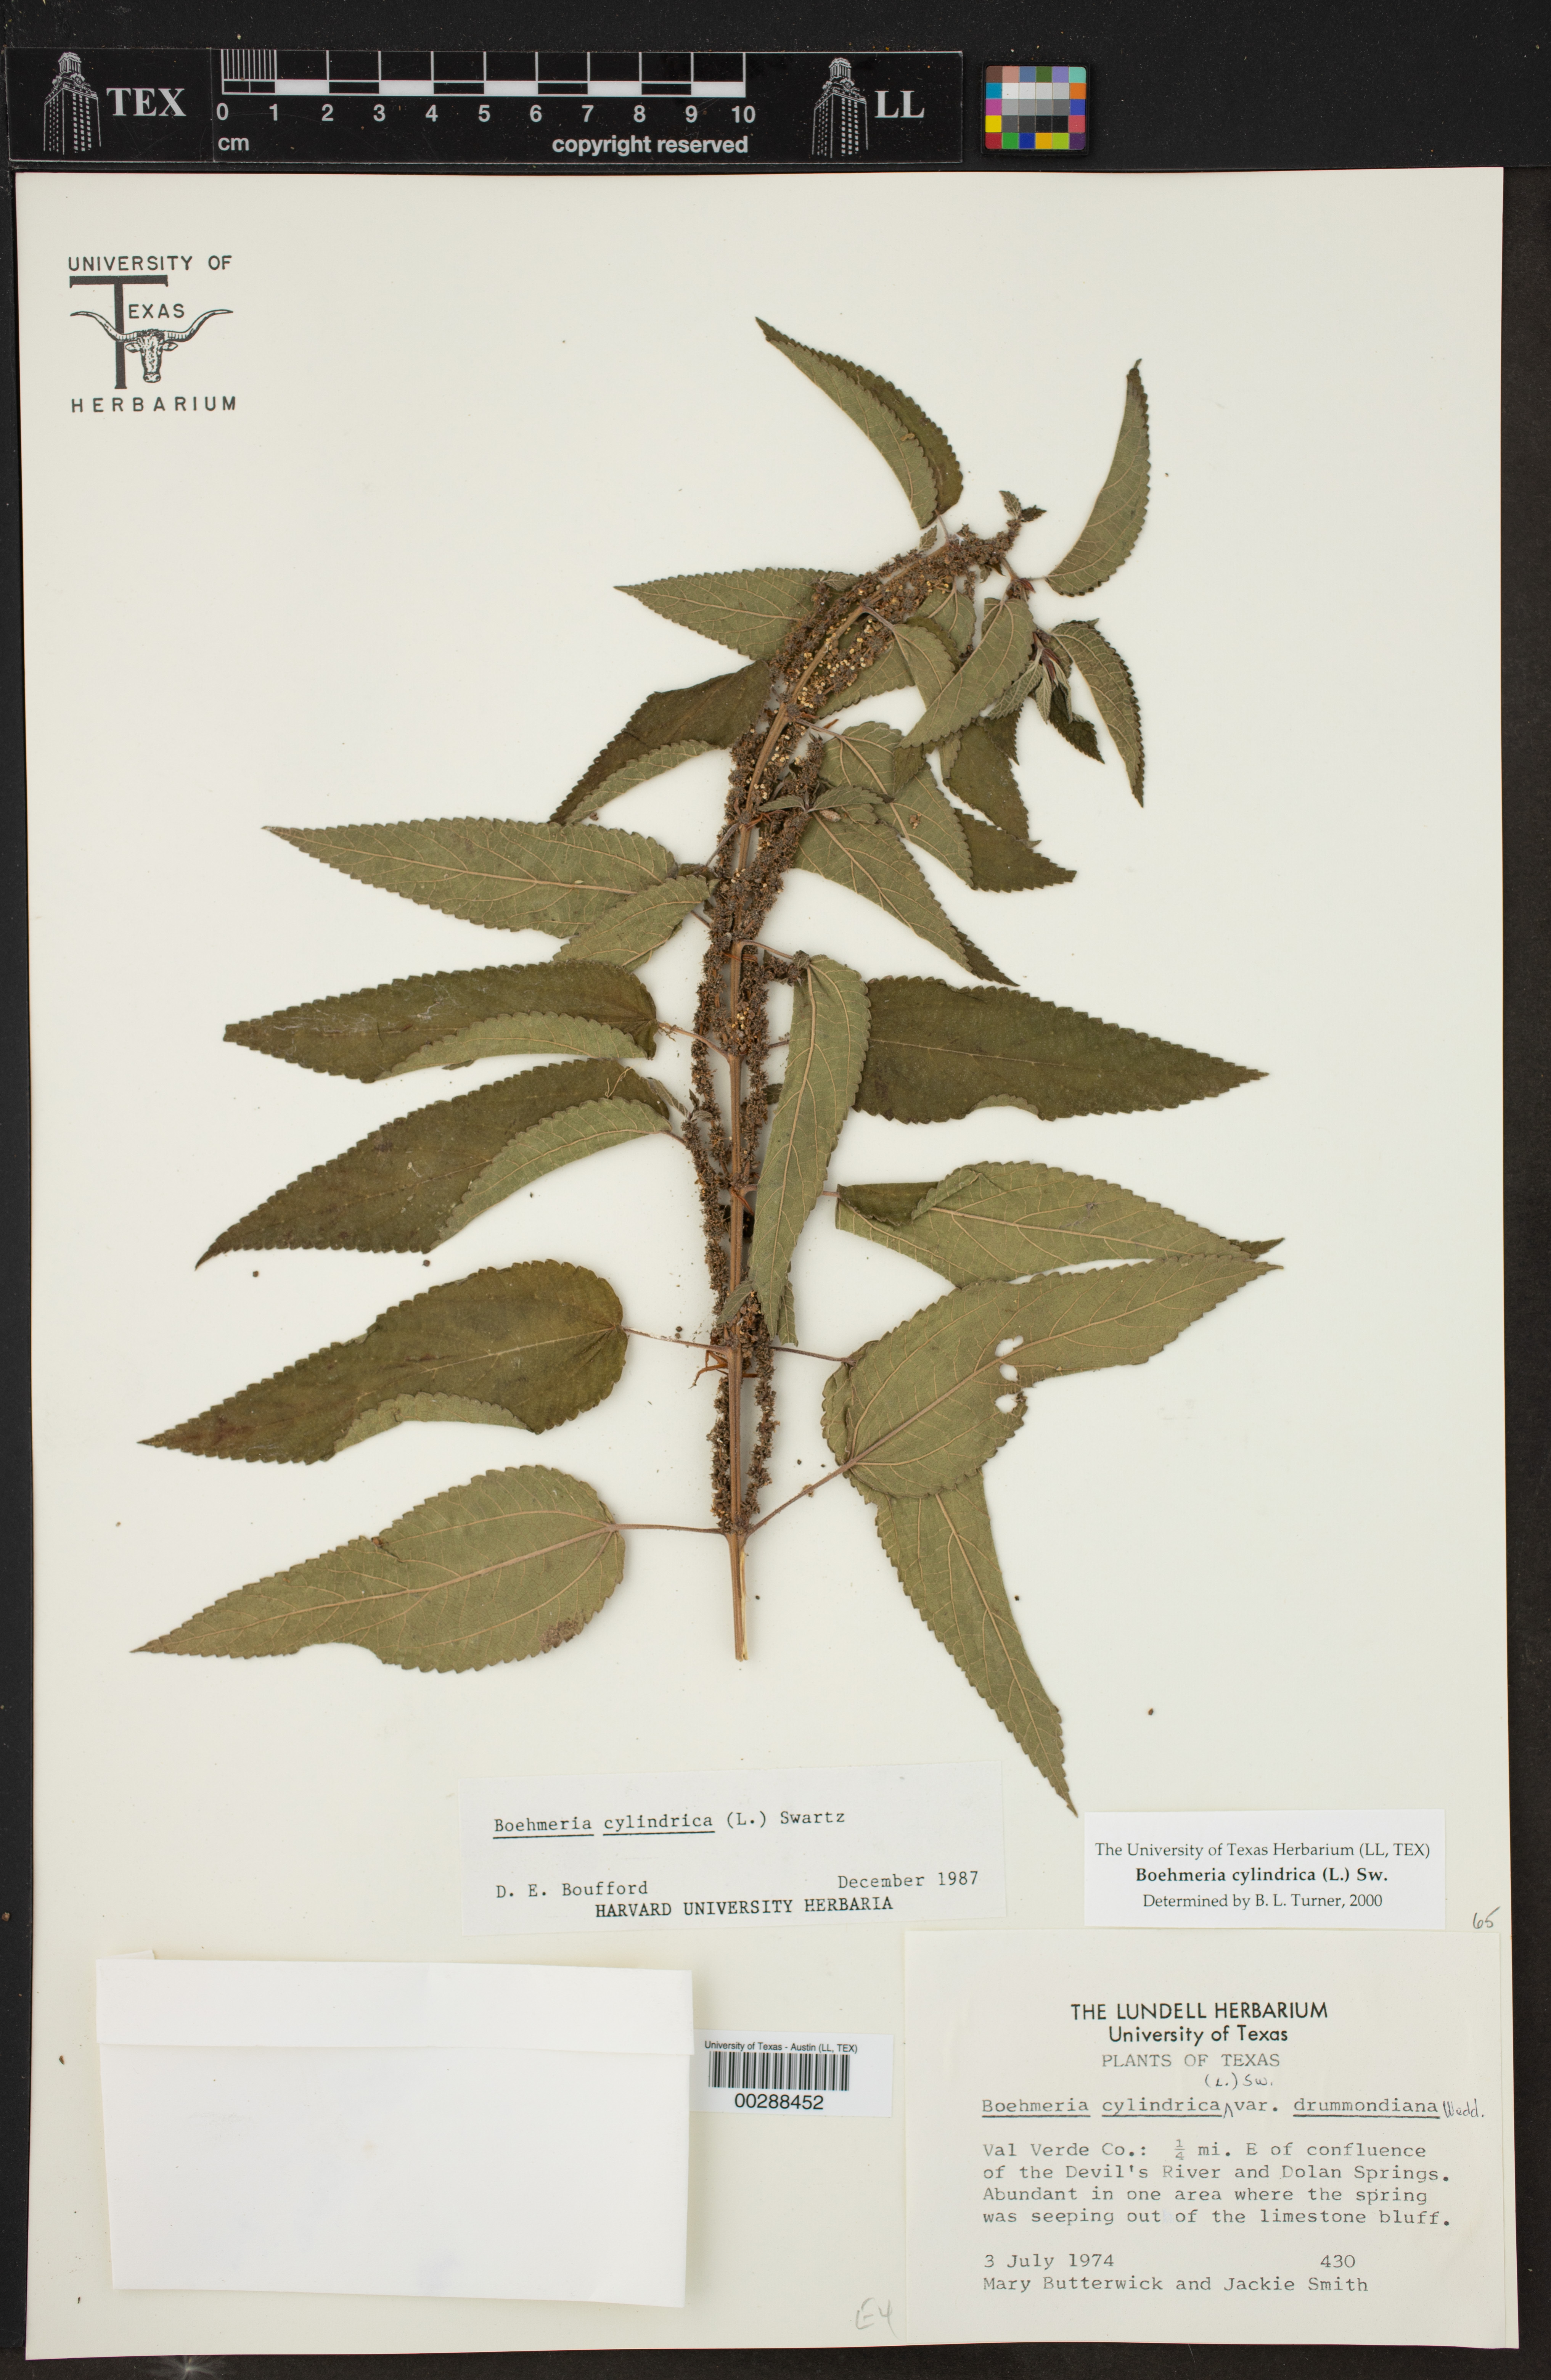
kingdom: Plantae
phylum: Tracheophyta
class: Magnoliopsida
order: Rosales
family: Urticaceae
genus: Boehmeria
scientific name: Boehmeria cylindrica
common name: Bog-hemp
